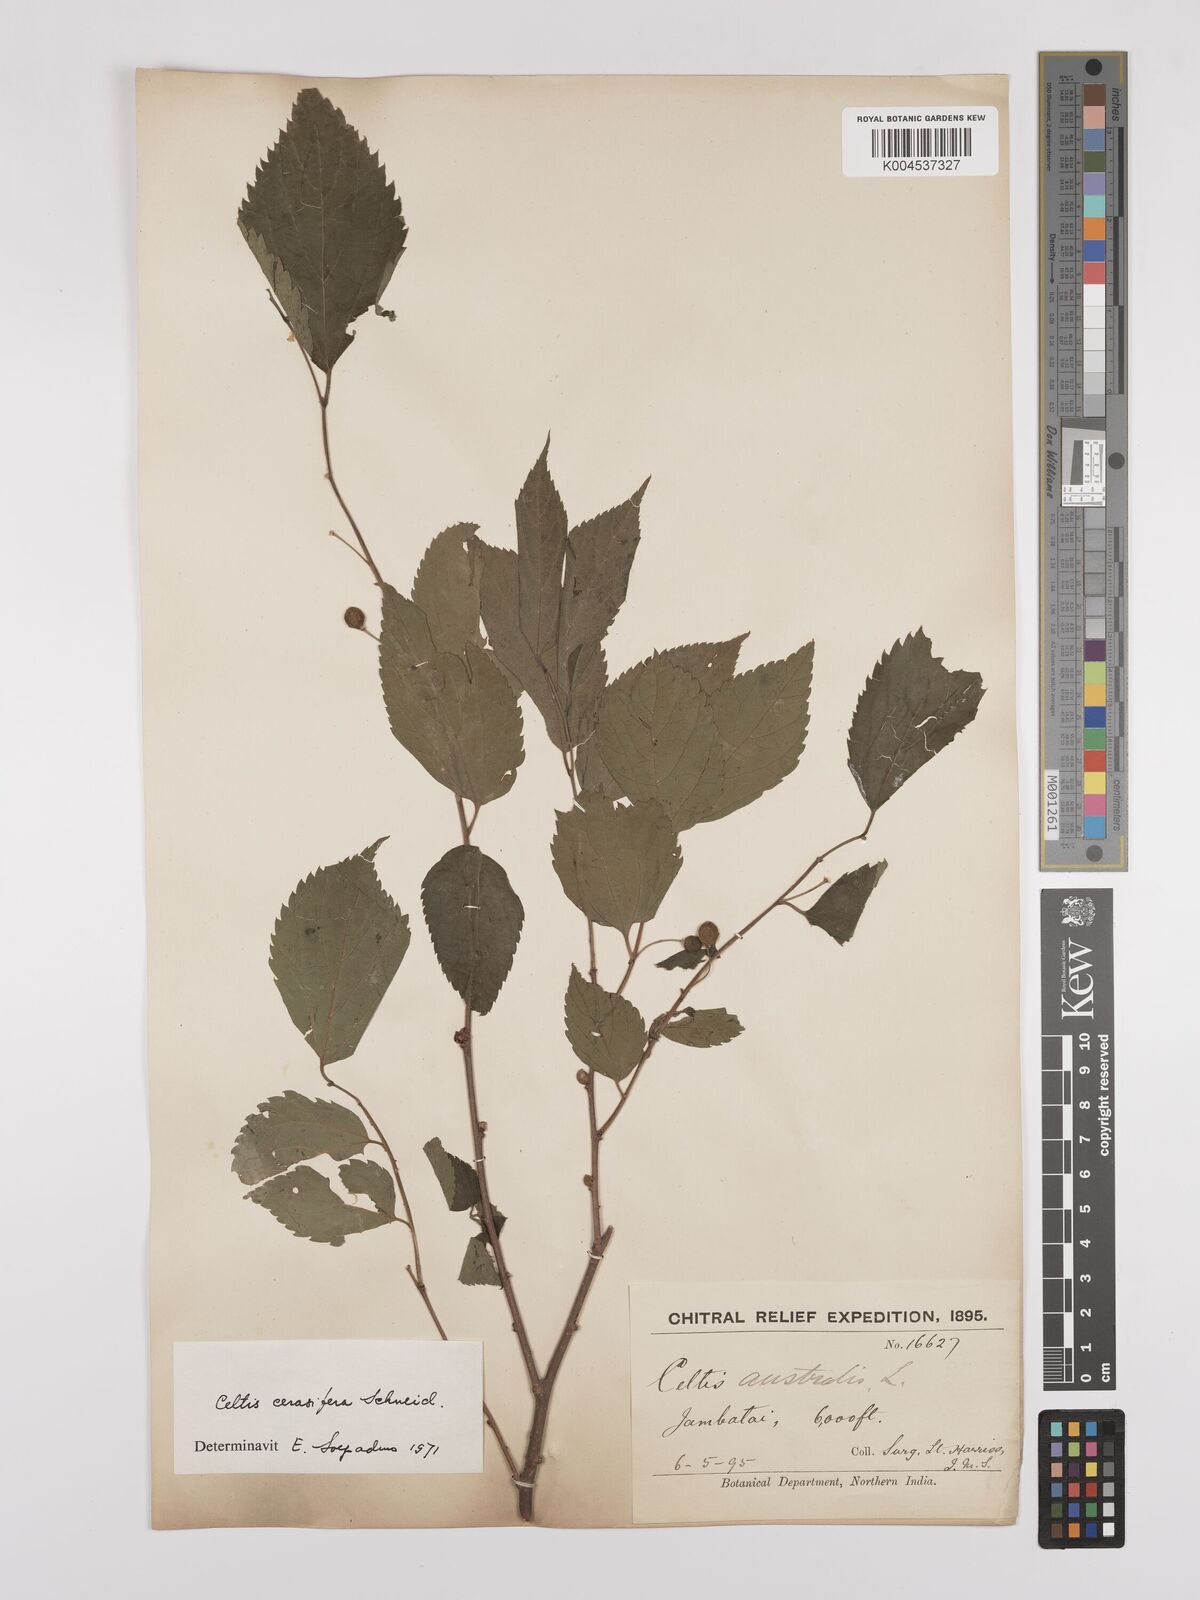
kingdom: Plantae
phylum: Tracheophyta
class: Magnoliopsida
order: Rosales
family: Cannabaceae
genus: Celtis
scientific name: Celtis cerasifera
